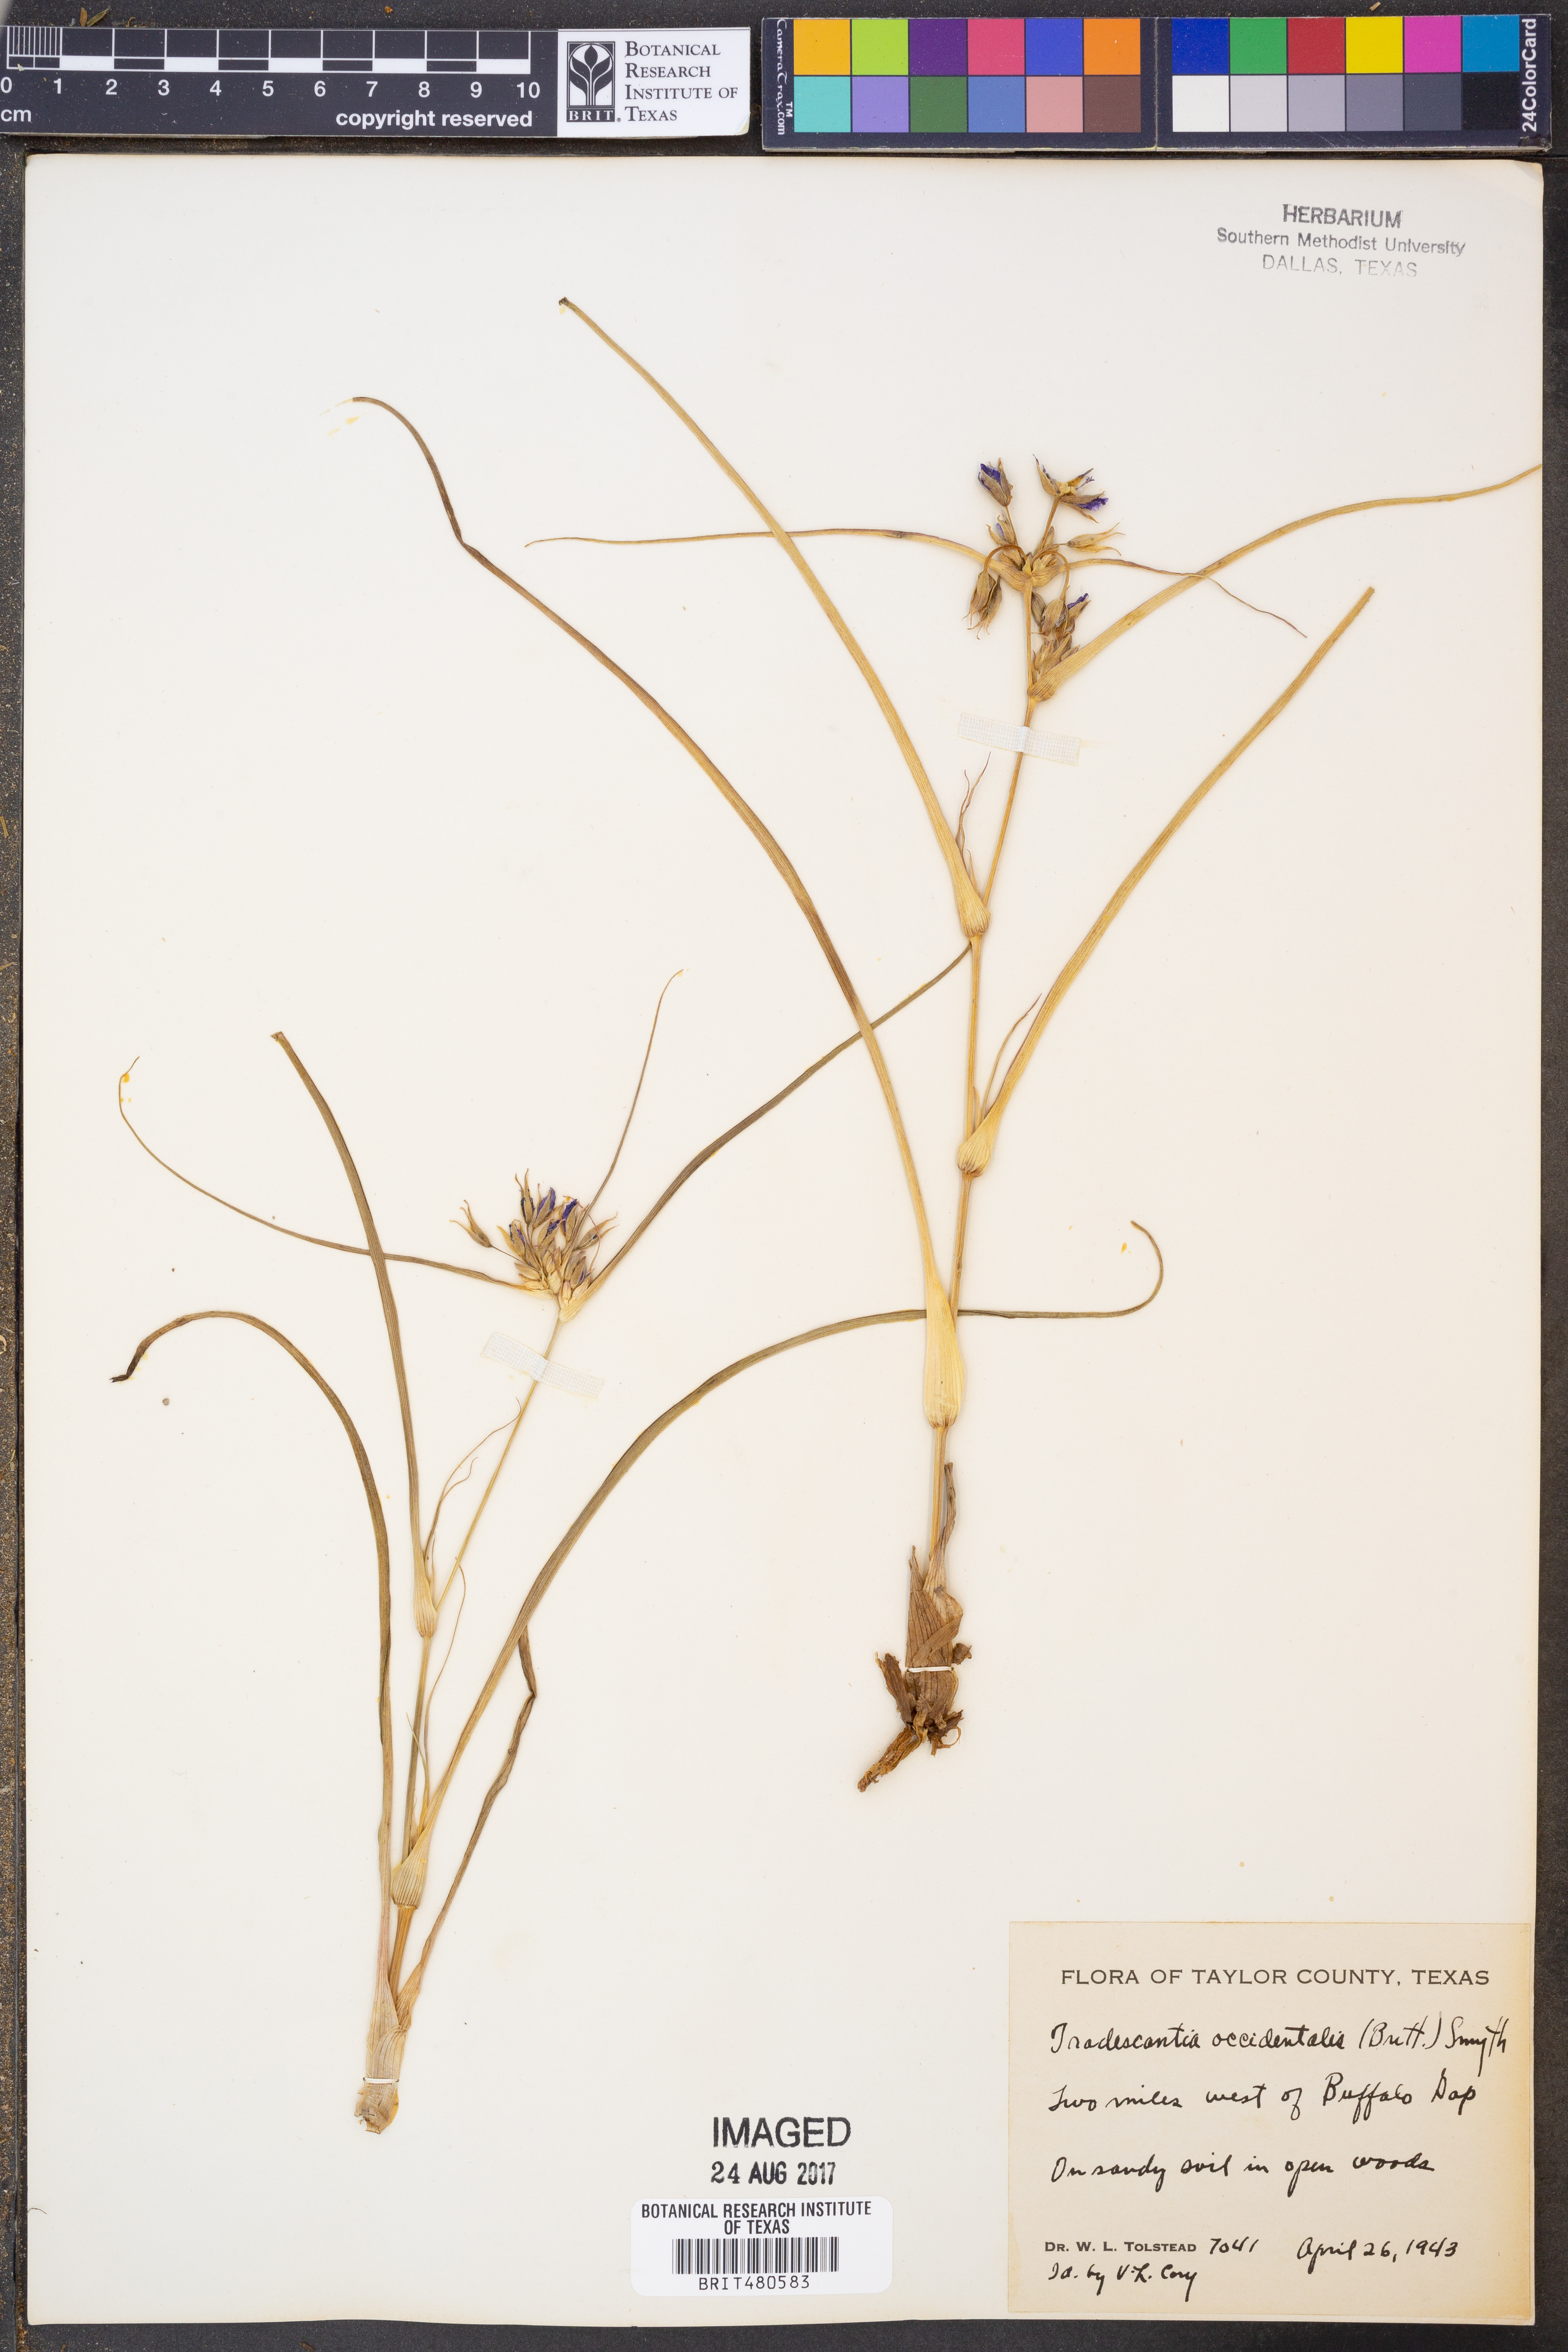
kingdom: Plantae
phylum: Tracheophyta
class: Liliopsida
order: Commelinales
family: Commelinaceae
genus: Tradescantia
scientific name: Tradescantia occidentalis
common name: Prairie spiderwort
